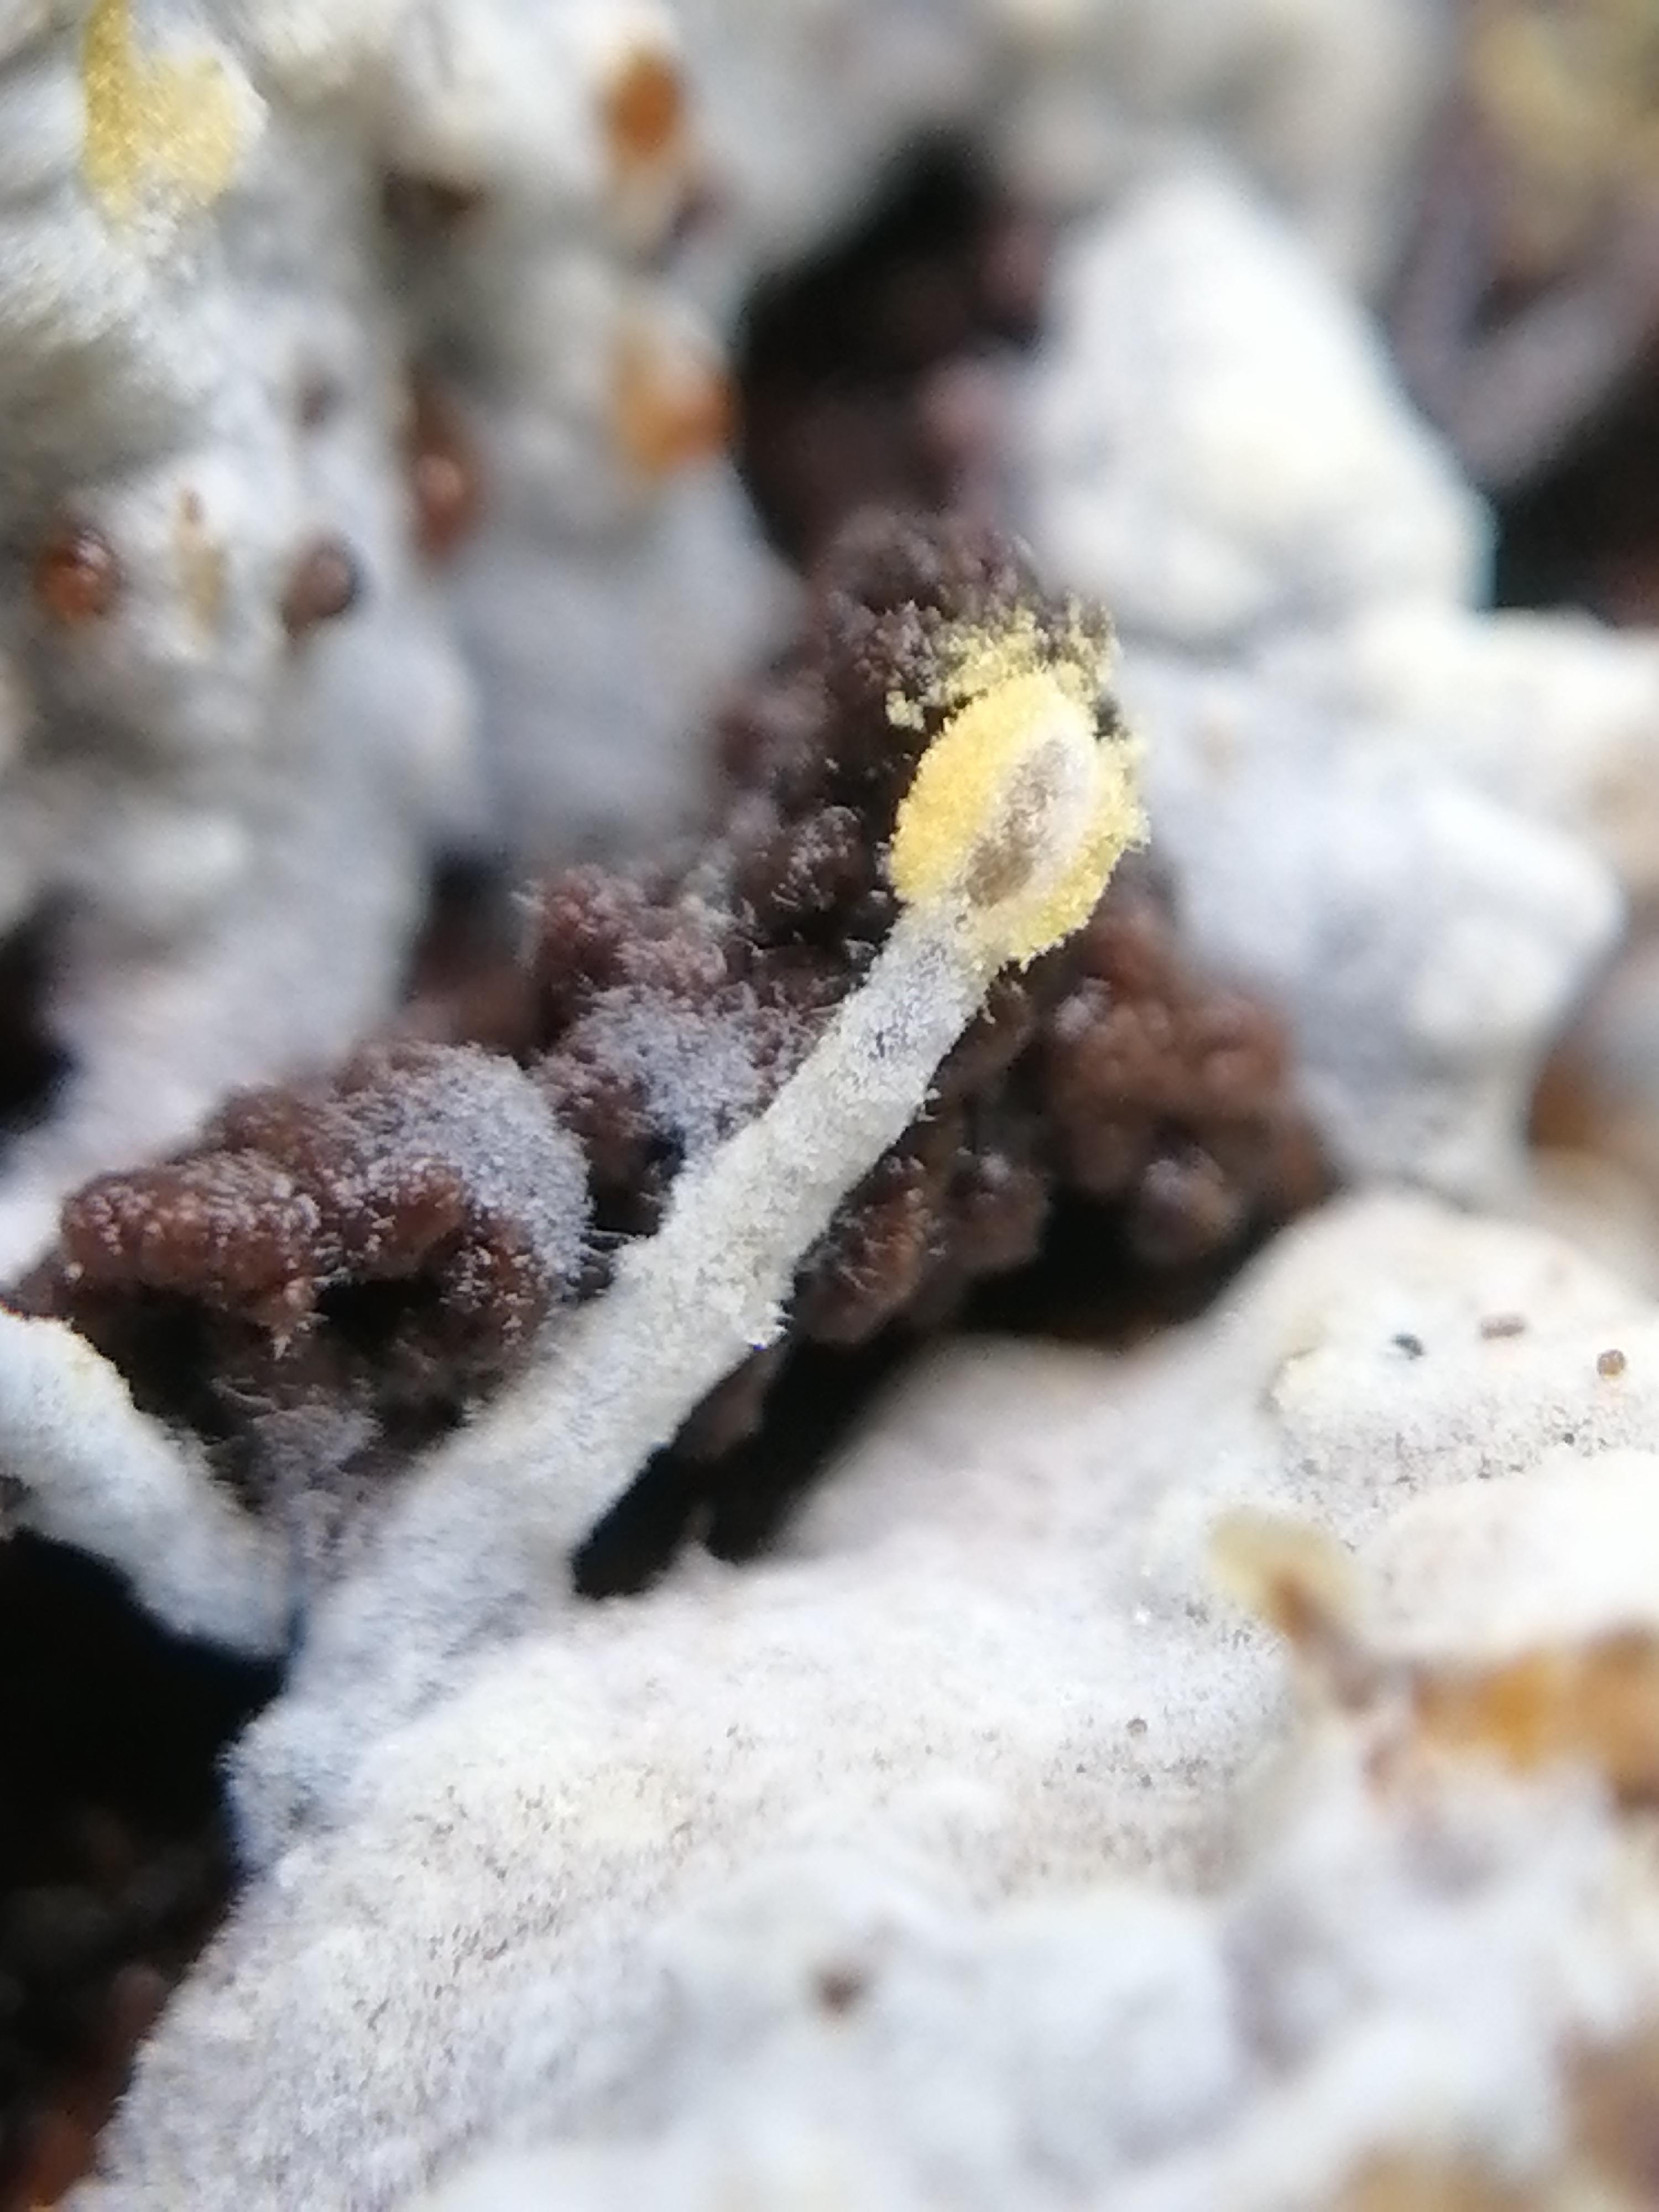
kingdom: Fungi
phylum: Basidiomycota
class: Agaricomycetes
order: Cantharellales
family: Botryobasidiaceae
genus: Botryobasidium
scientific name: Botryobasidium aureum
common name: gylden spindhinde
